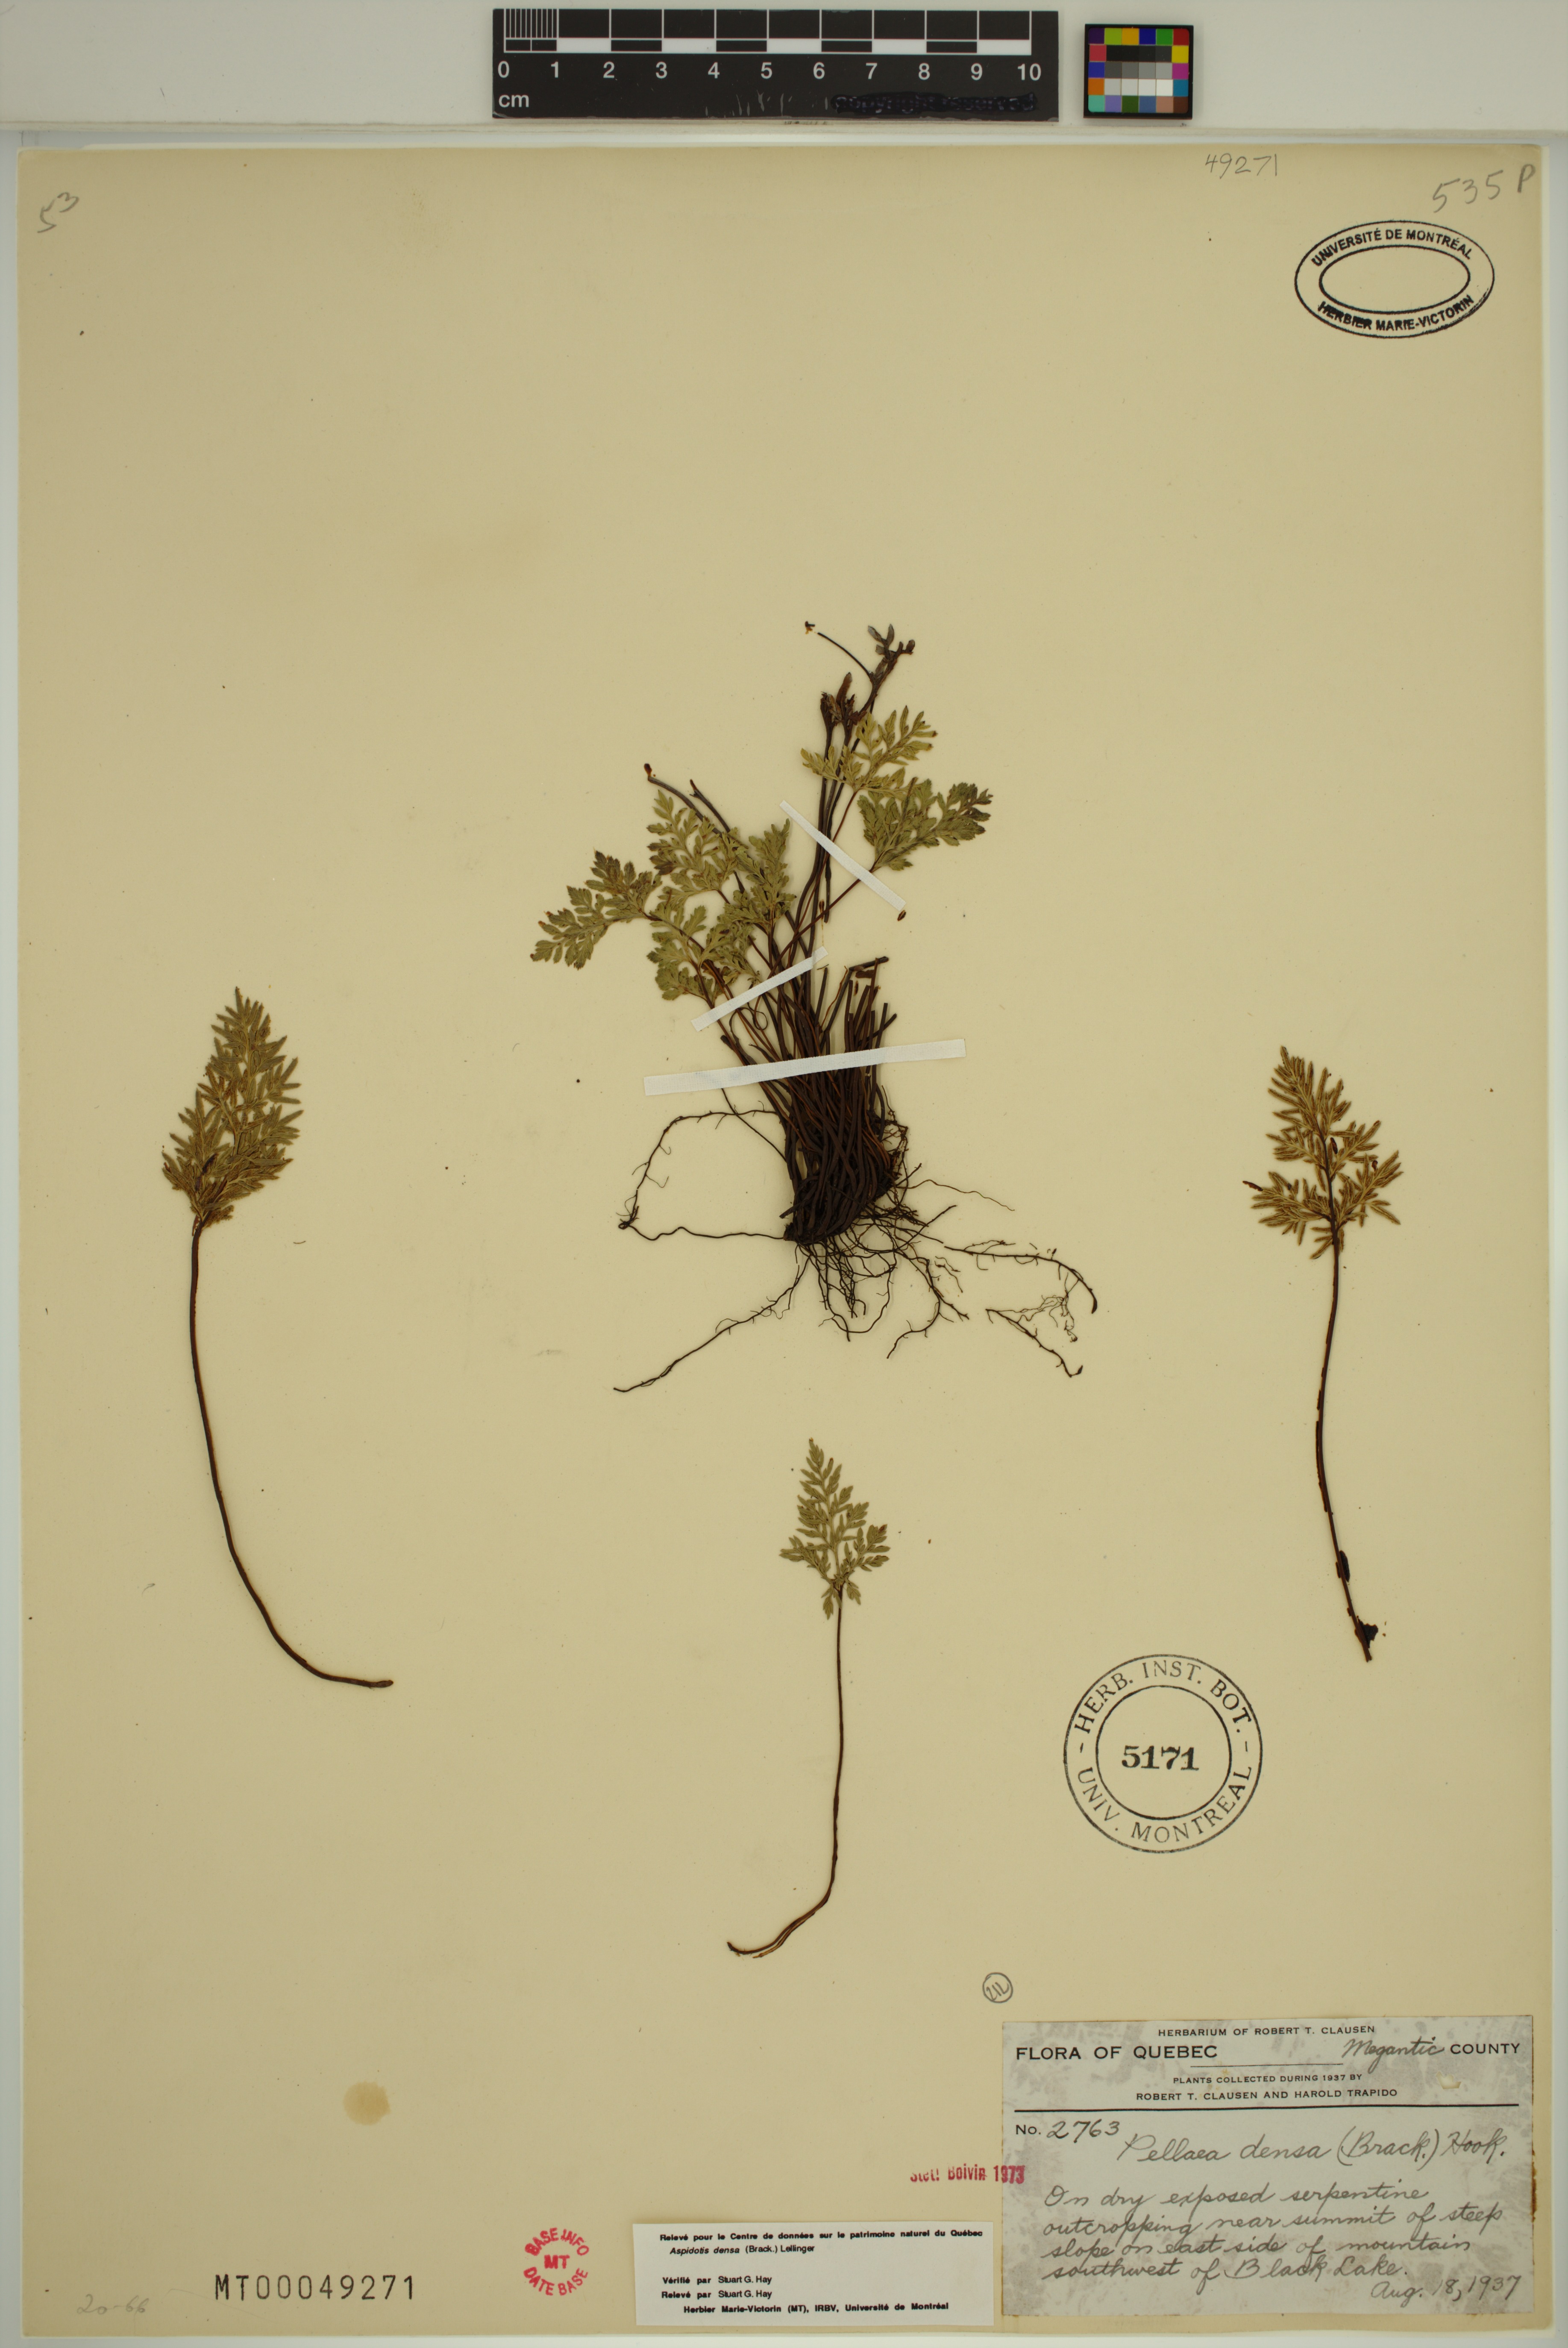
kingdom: Plantae
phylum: Tracheophyta
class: Polypodiopsida
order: Polypodiales
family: Pteridaceae
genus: Aspidotis
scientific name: Aspidotis densa
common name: Indian's dream
